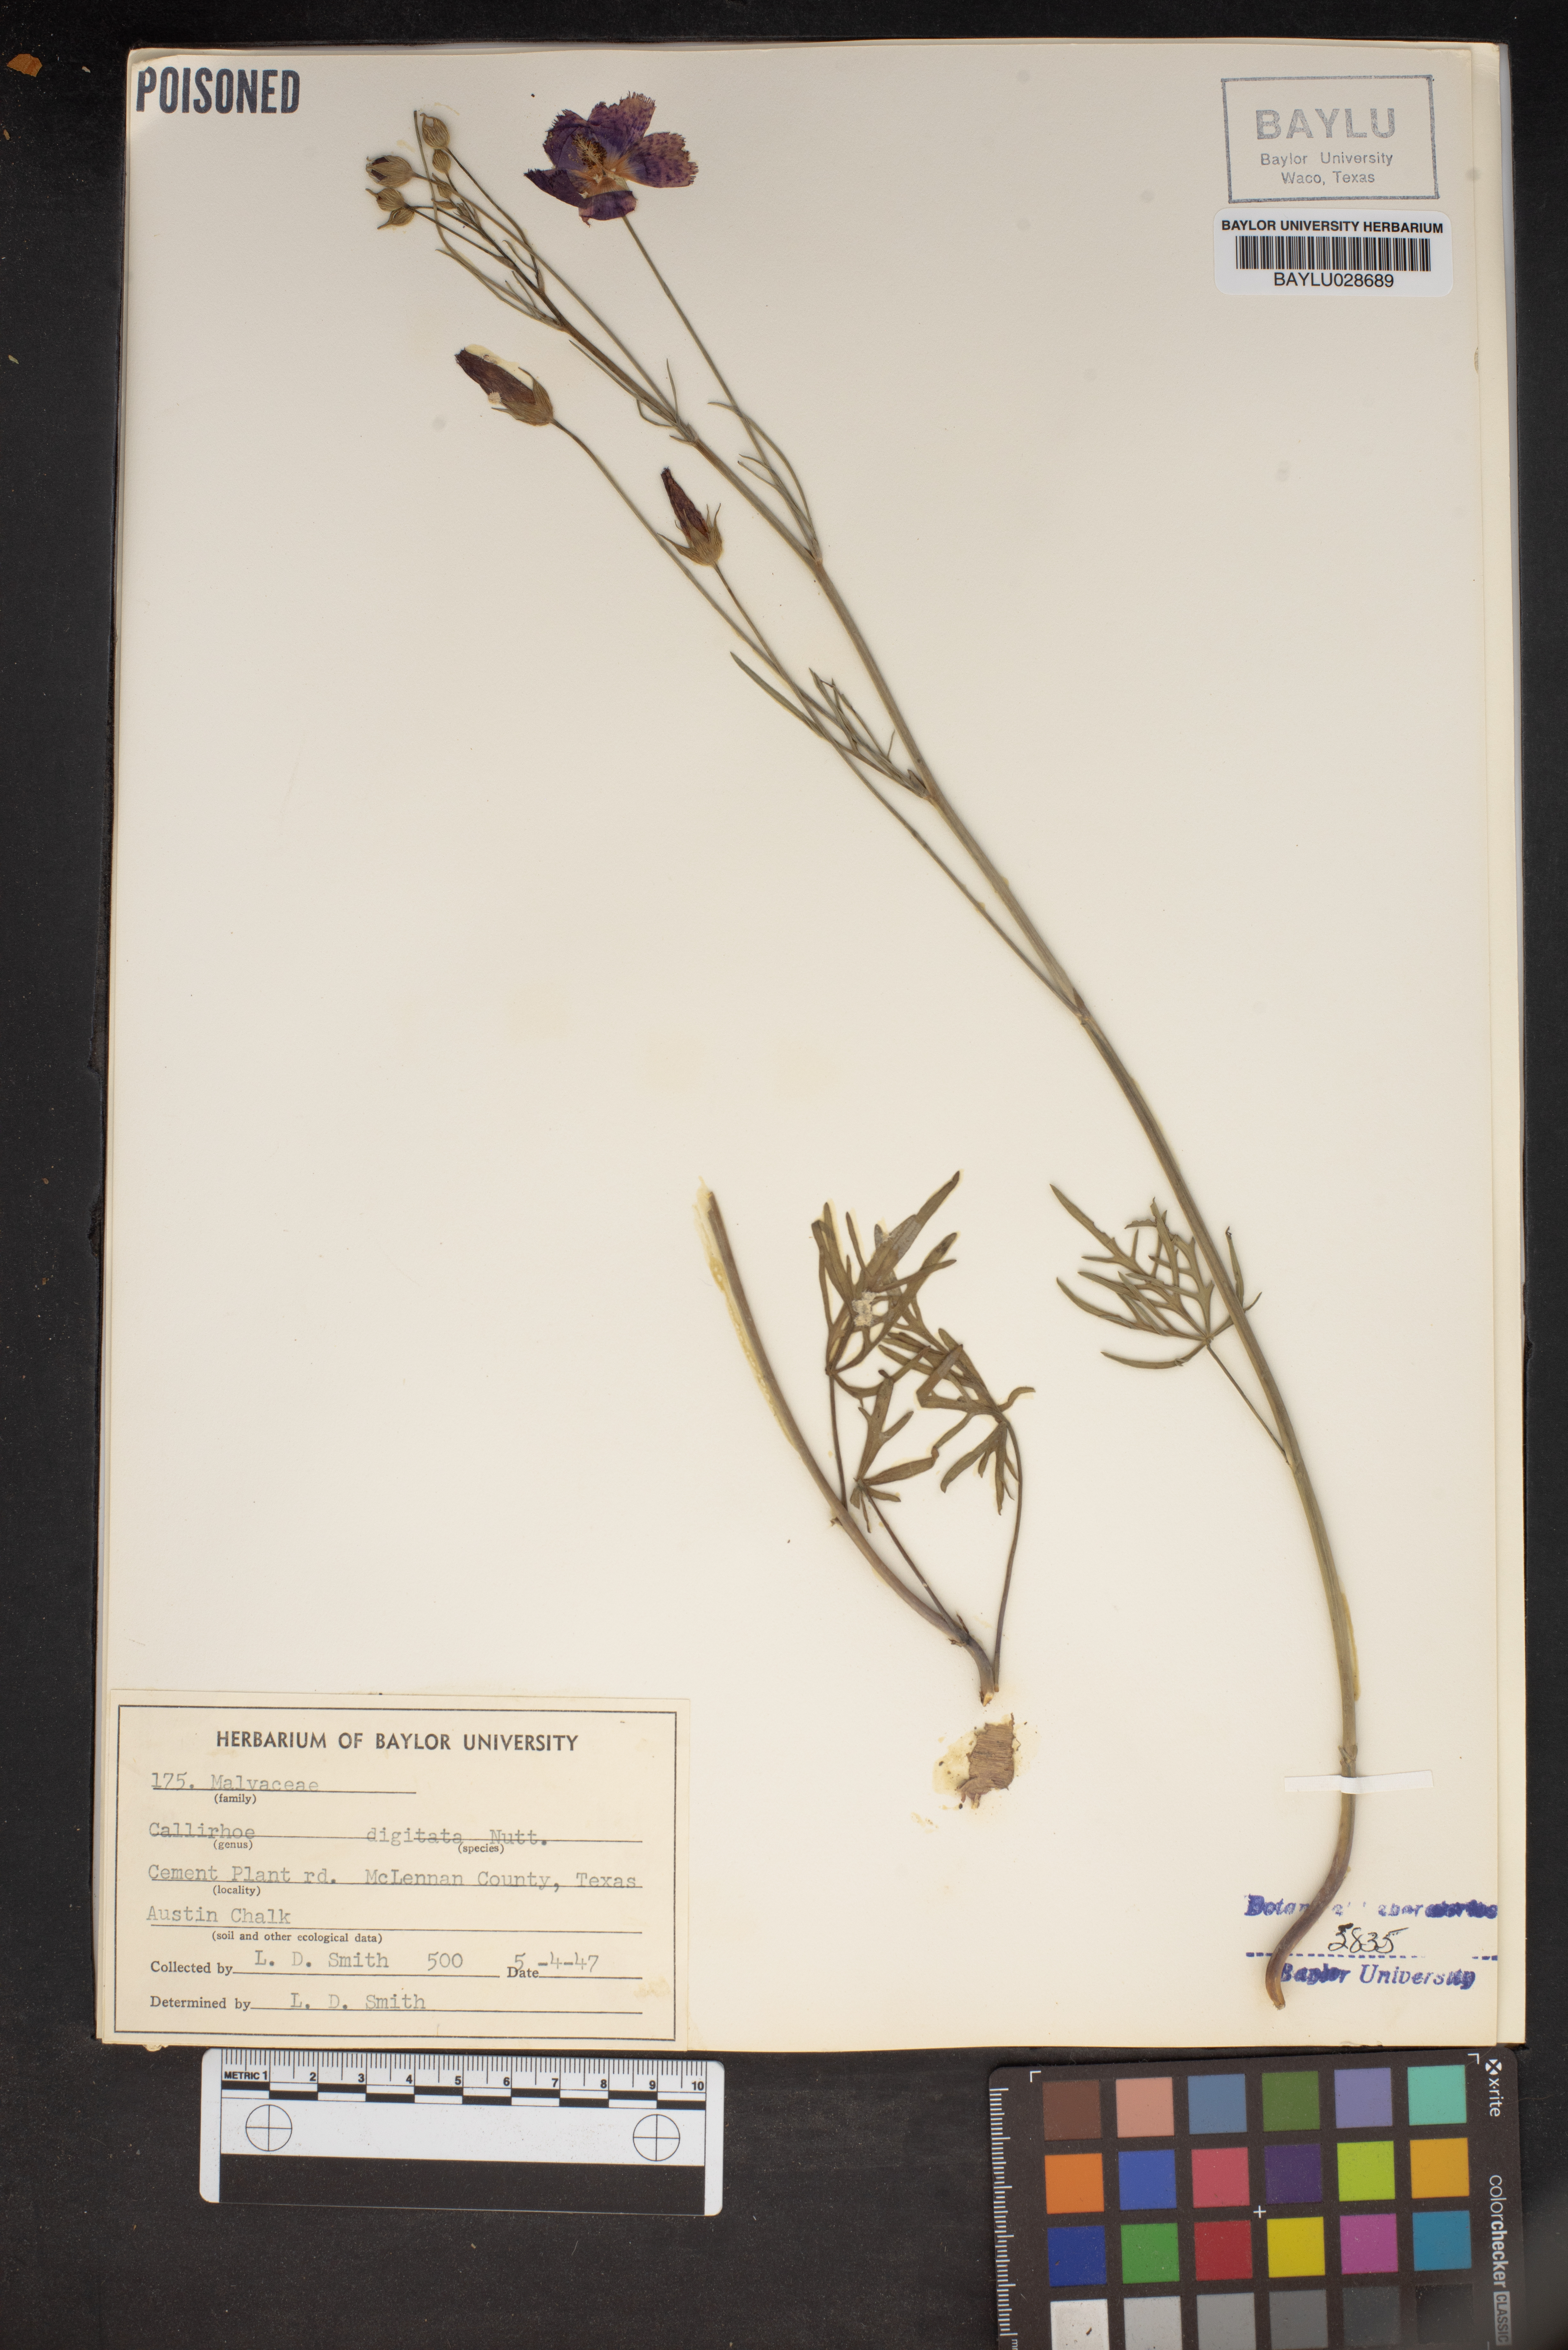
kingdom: Plantae
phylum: Tracheophyta
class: Magnoliopsida
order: Malvales
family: Malvaceae
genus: Callirhoe
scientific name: Callirhoe digitata
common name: Finger poppy-mallow
